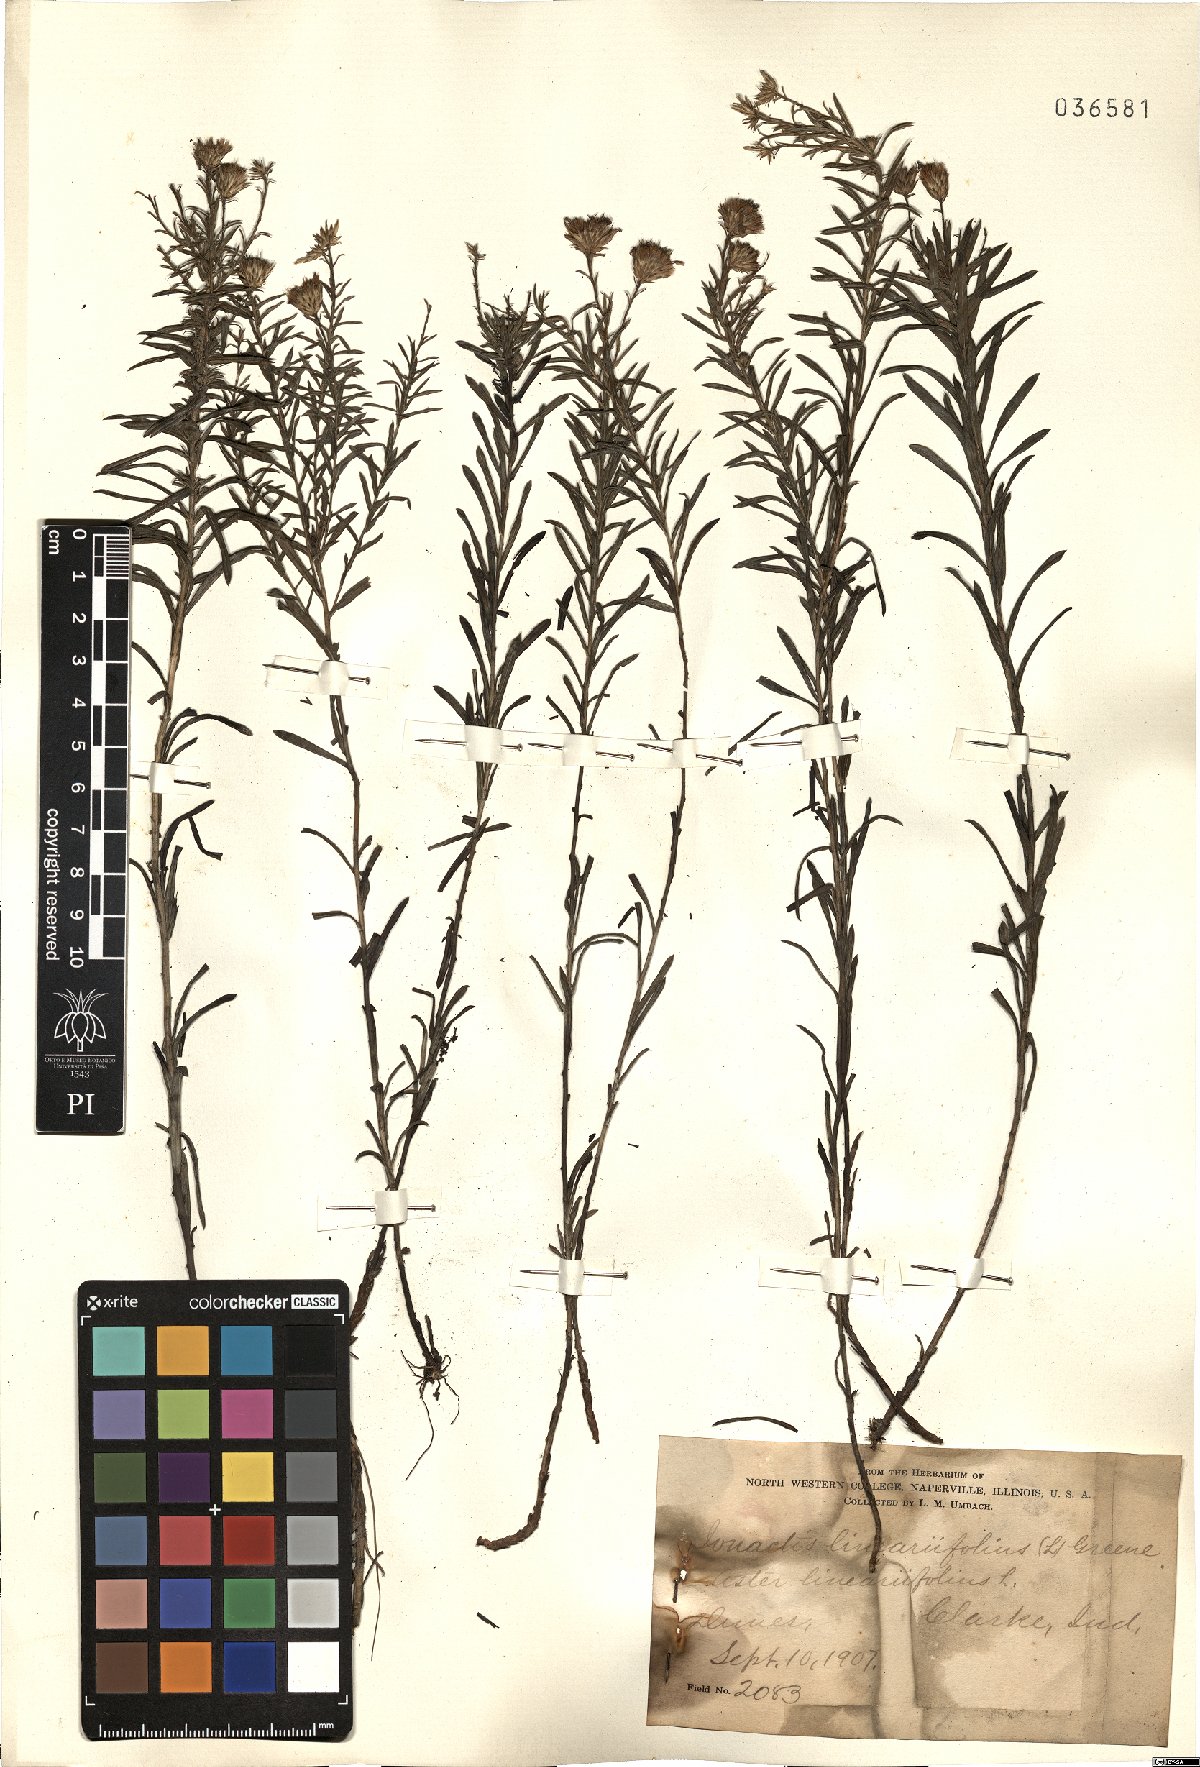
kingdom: Plantae
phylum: Tracheophyta
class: Magnoliopsida
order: Asterales
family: Asteraceae
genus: Ionactis
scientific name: Ionactis linariifolia
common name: Flax-leaf aster
